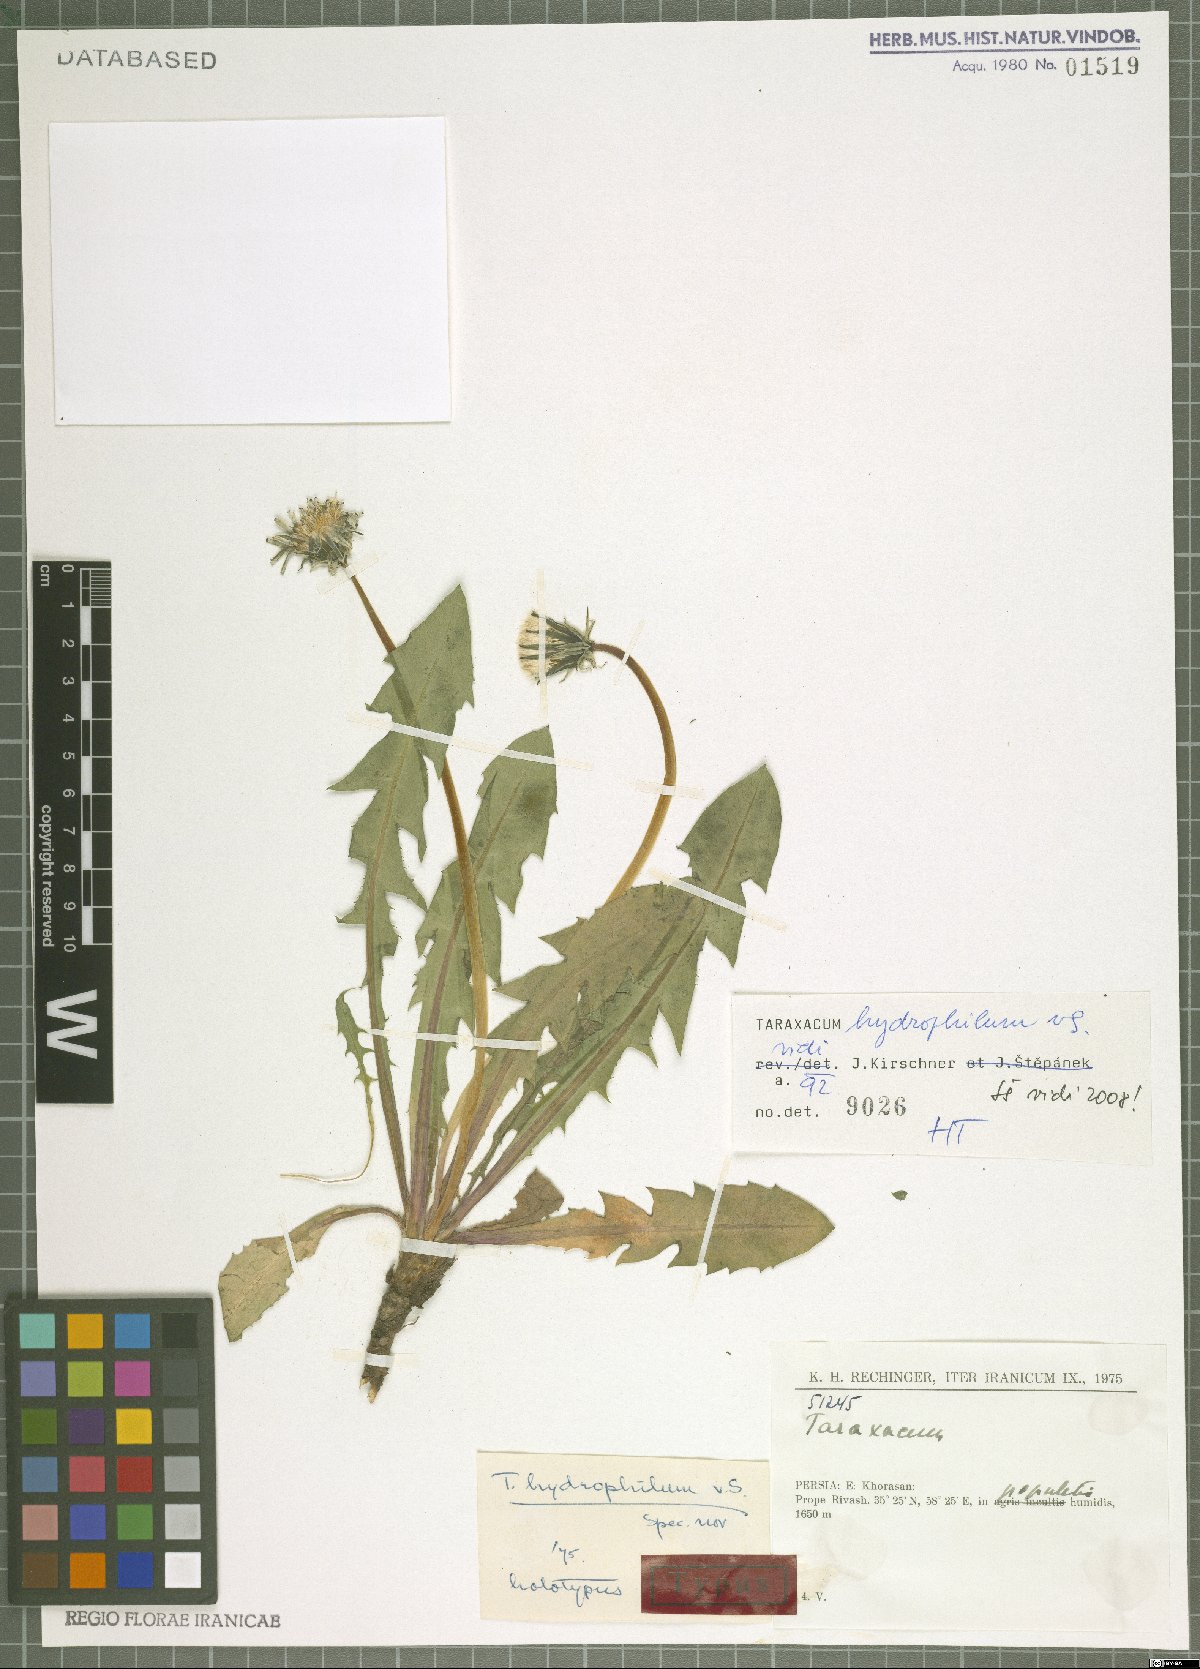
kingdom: Plantae
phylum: Tracheophyta
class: Magnoliopsida
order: Asterales
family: Asteraceae
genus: Taraxacum
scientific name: Taraxacum hydrophilum
